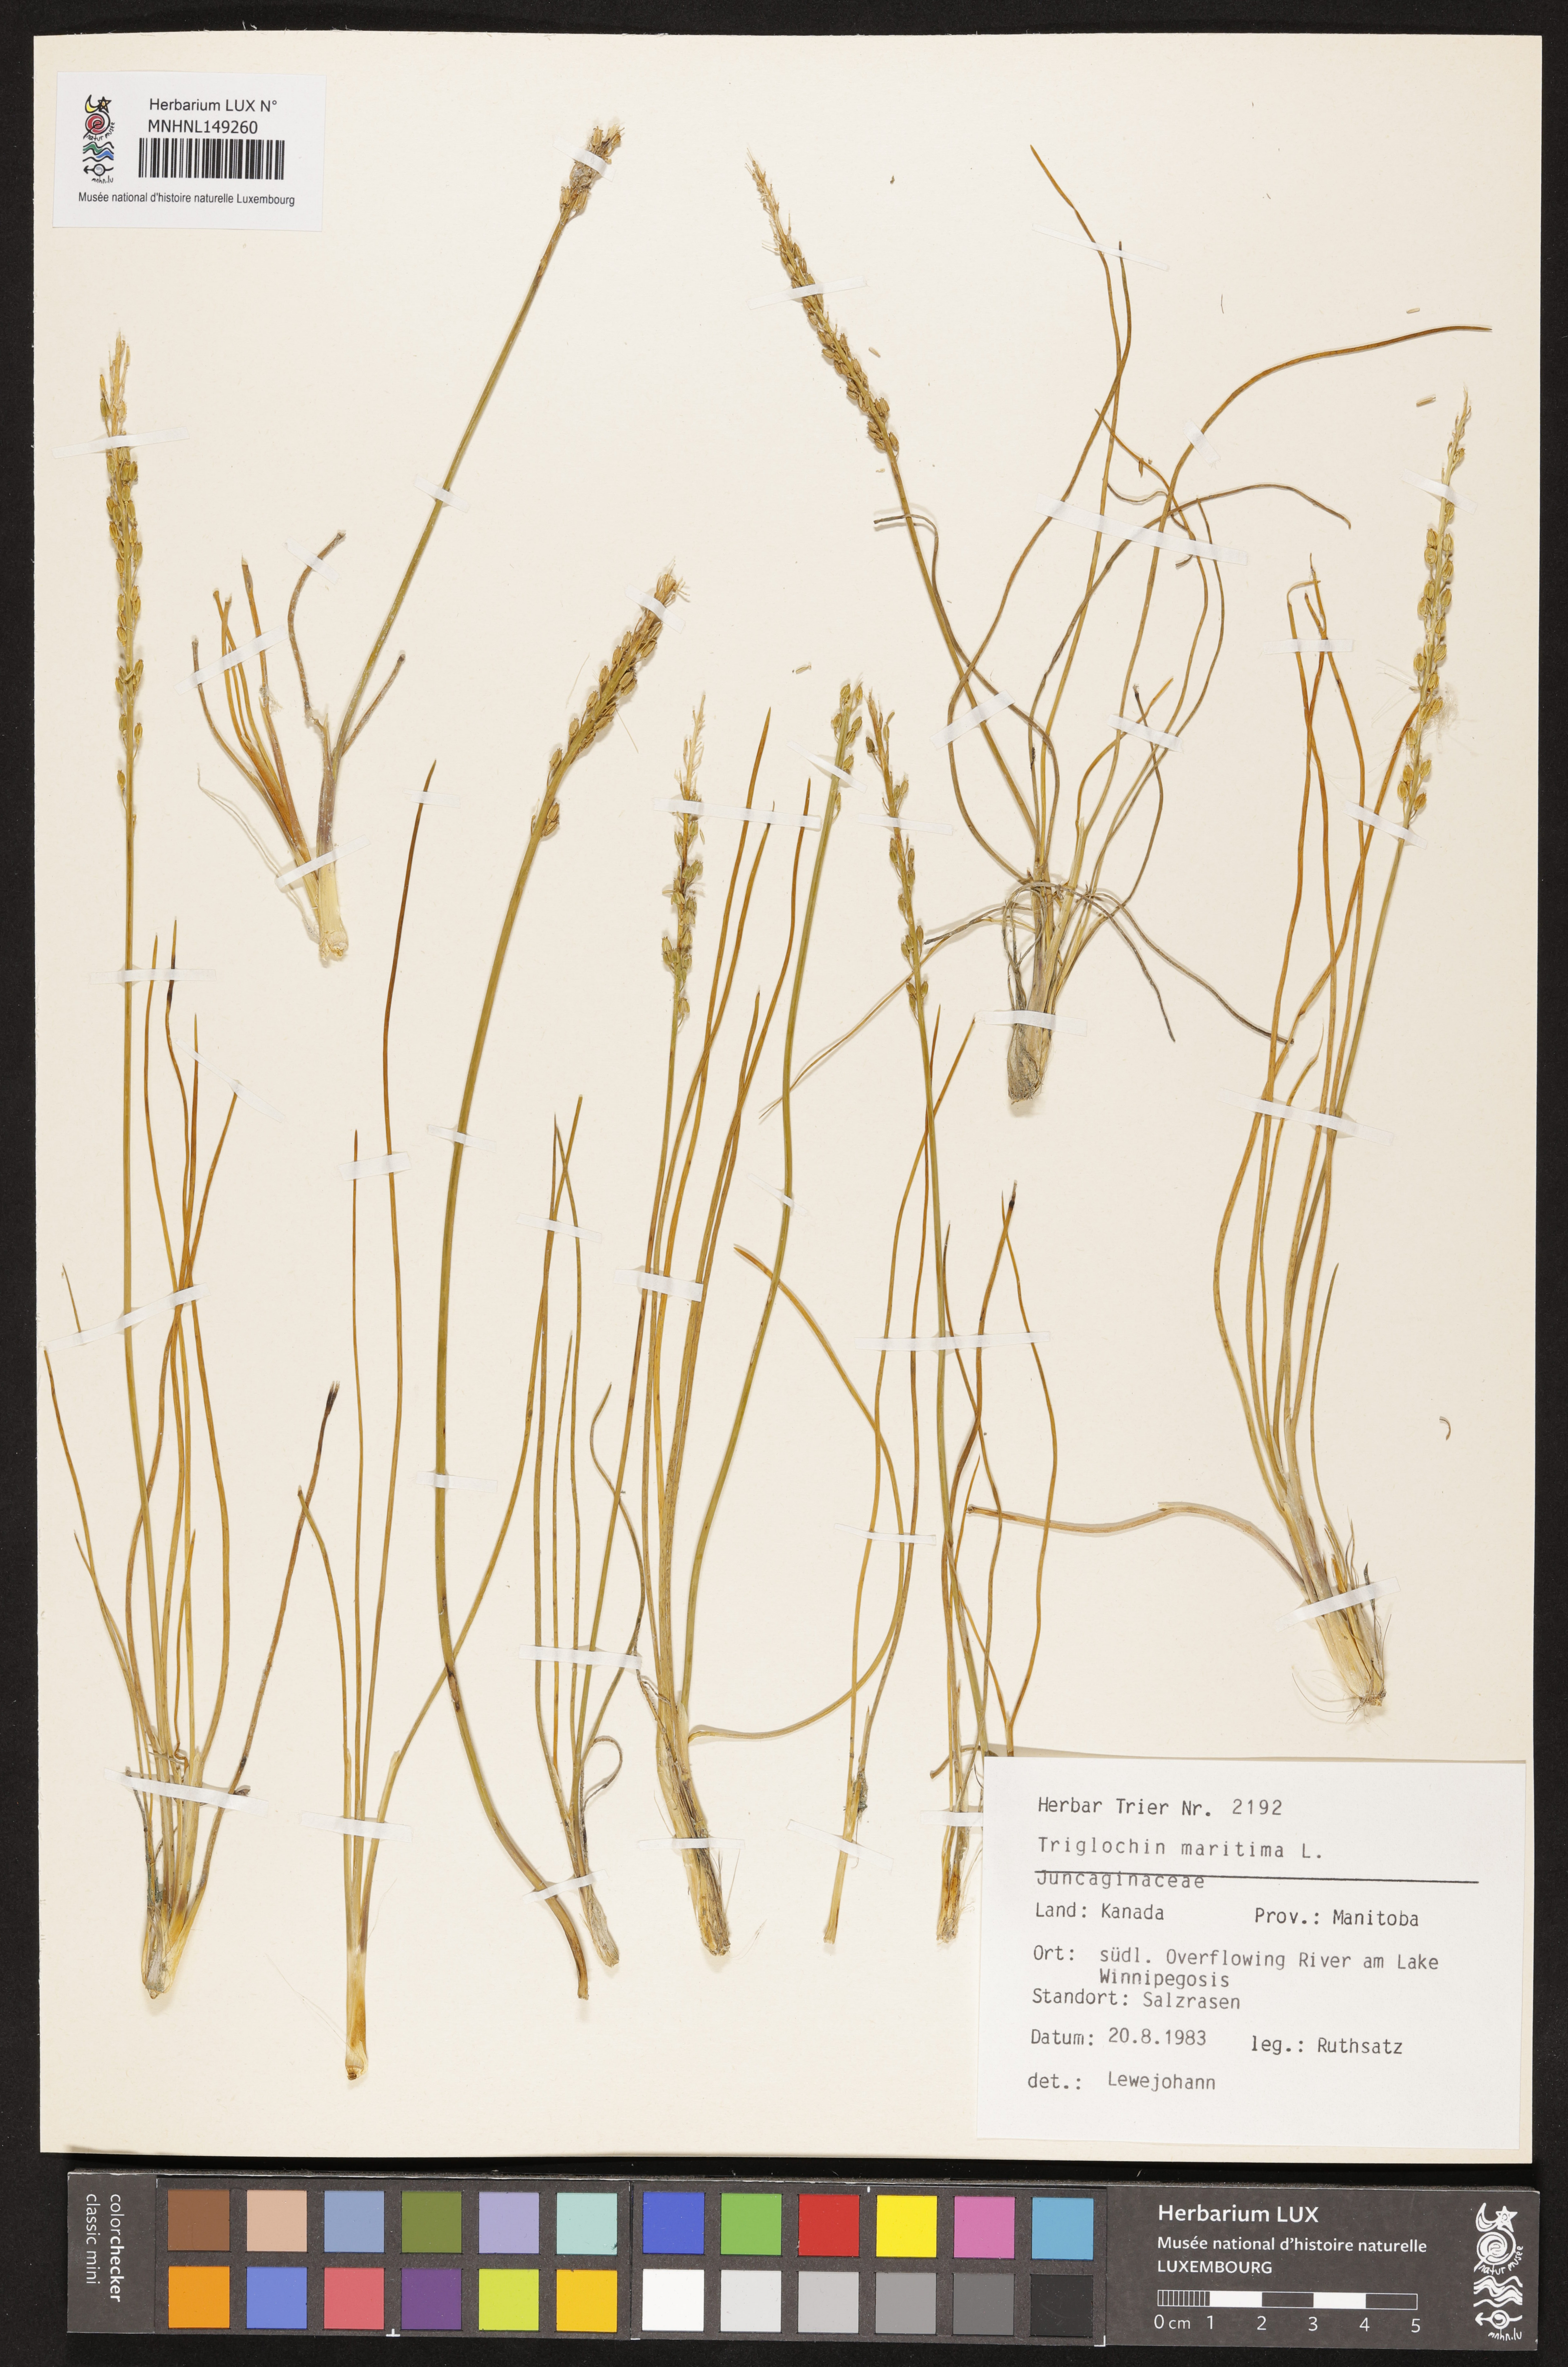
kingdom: Plantae
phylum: Tracheophyta
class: Liliopsida
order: Alismatales
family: Juncaginaceae
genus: Triglochin
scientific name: Triglochin maritima
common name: Sea arrowgrass
